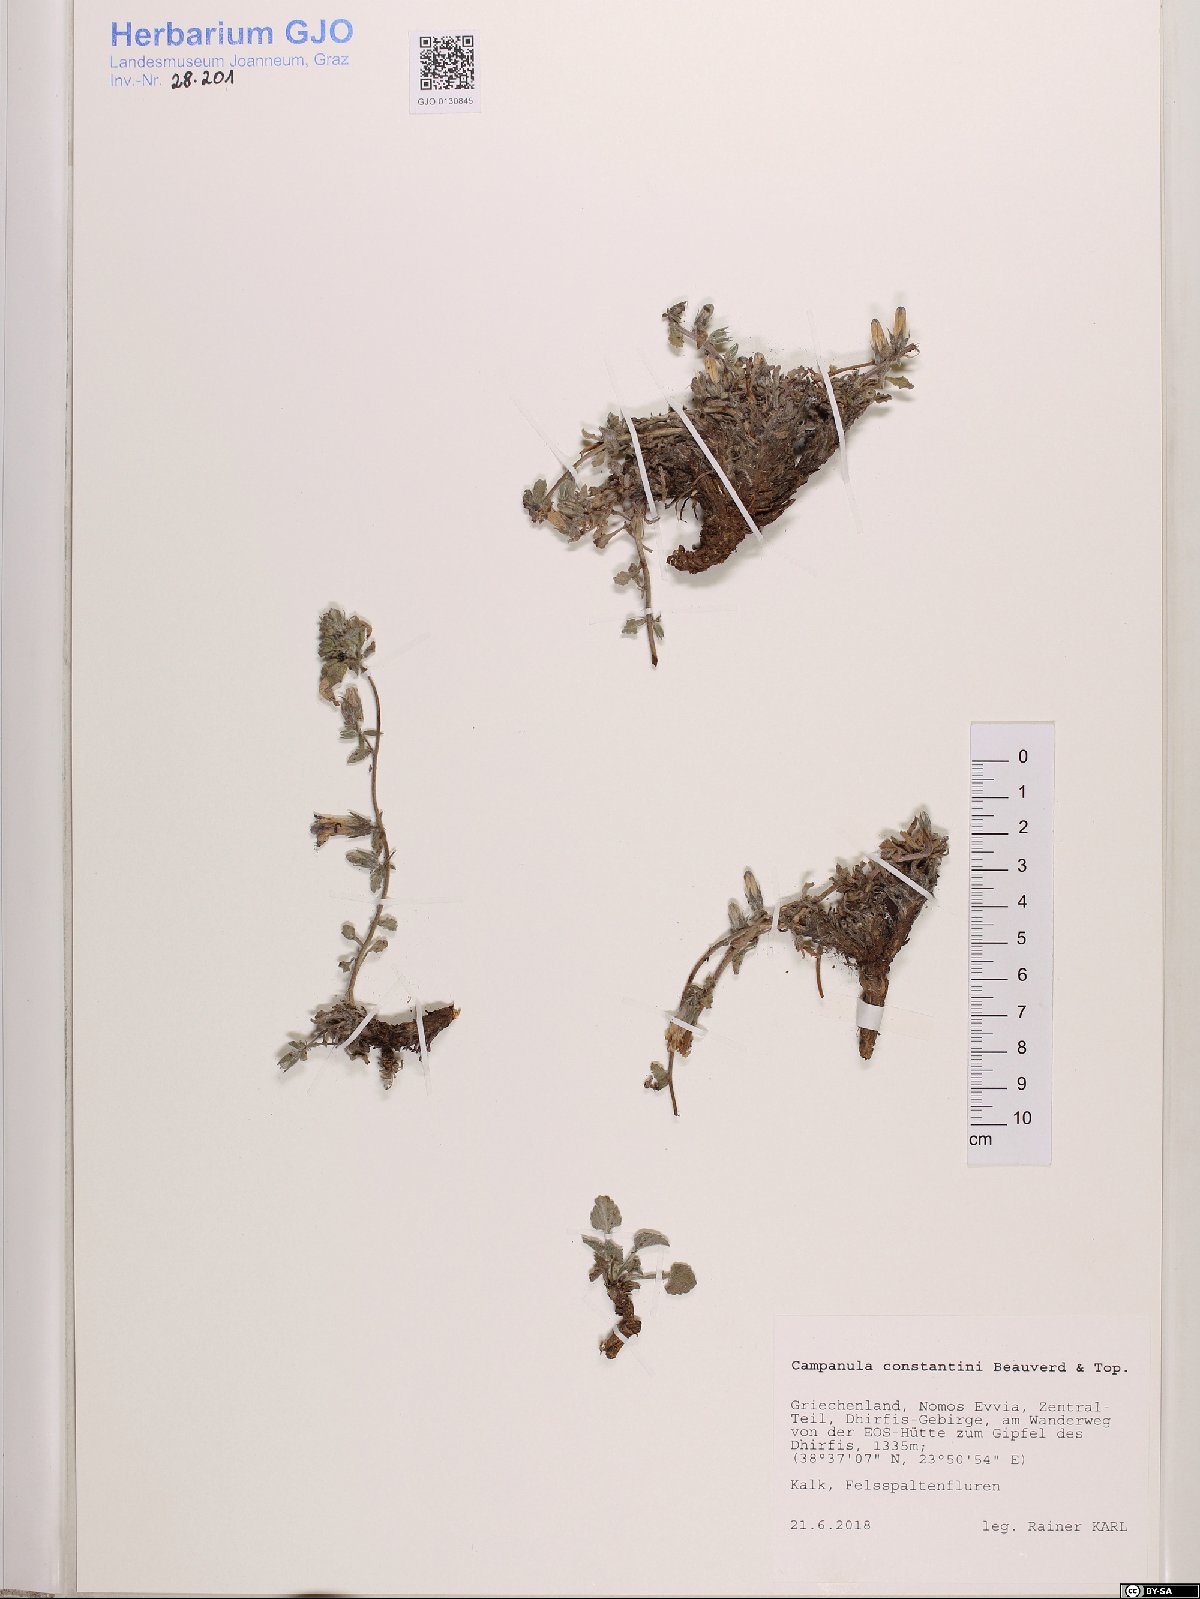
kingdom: Plantae
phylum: Tracheophyta
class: Magnoliopsida
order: Asterales
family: Campanulaceae
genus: Campanula
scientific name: Campanula constantini
